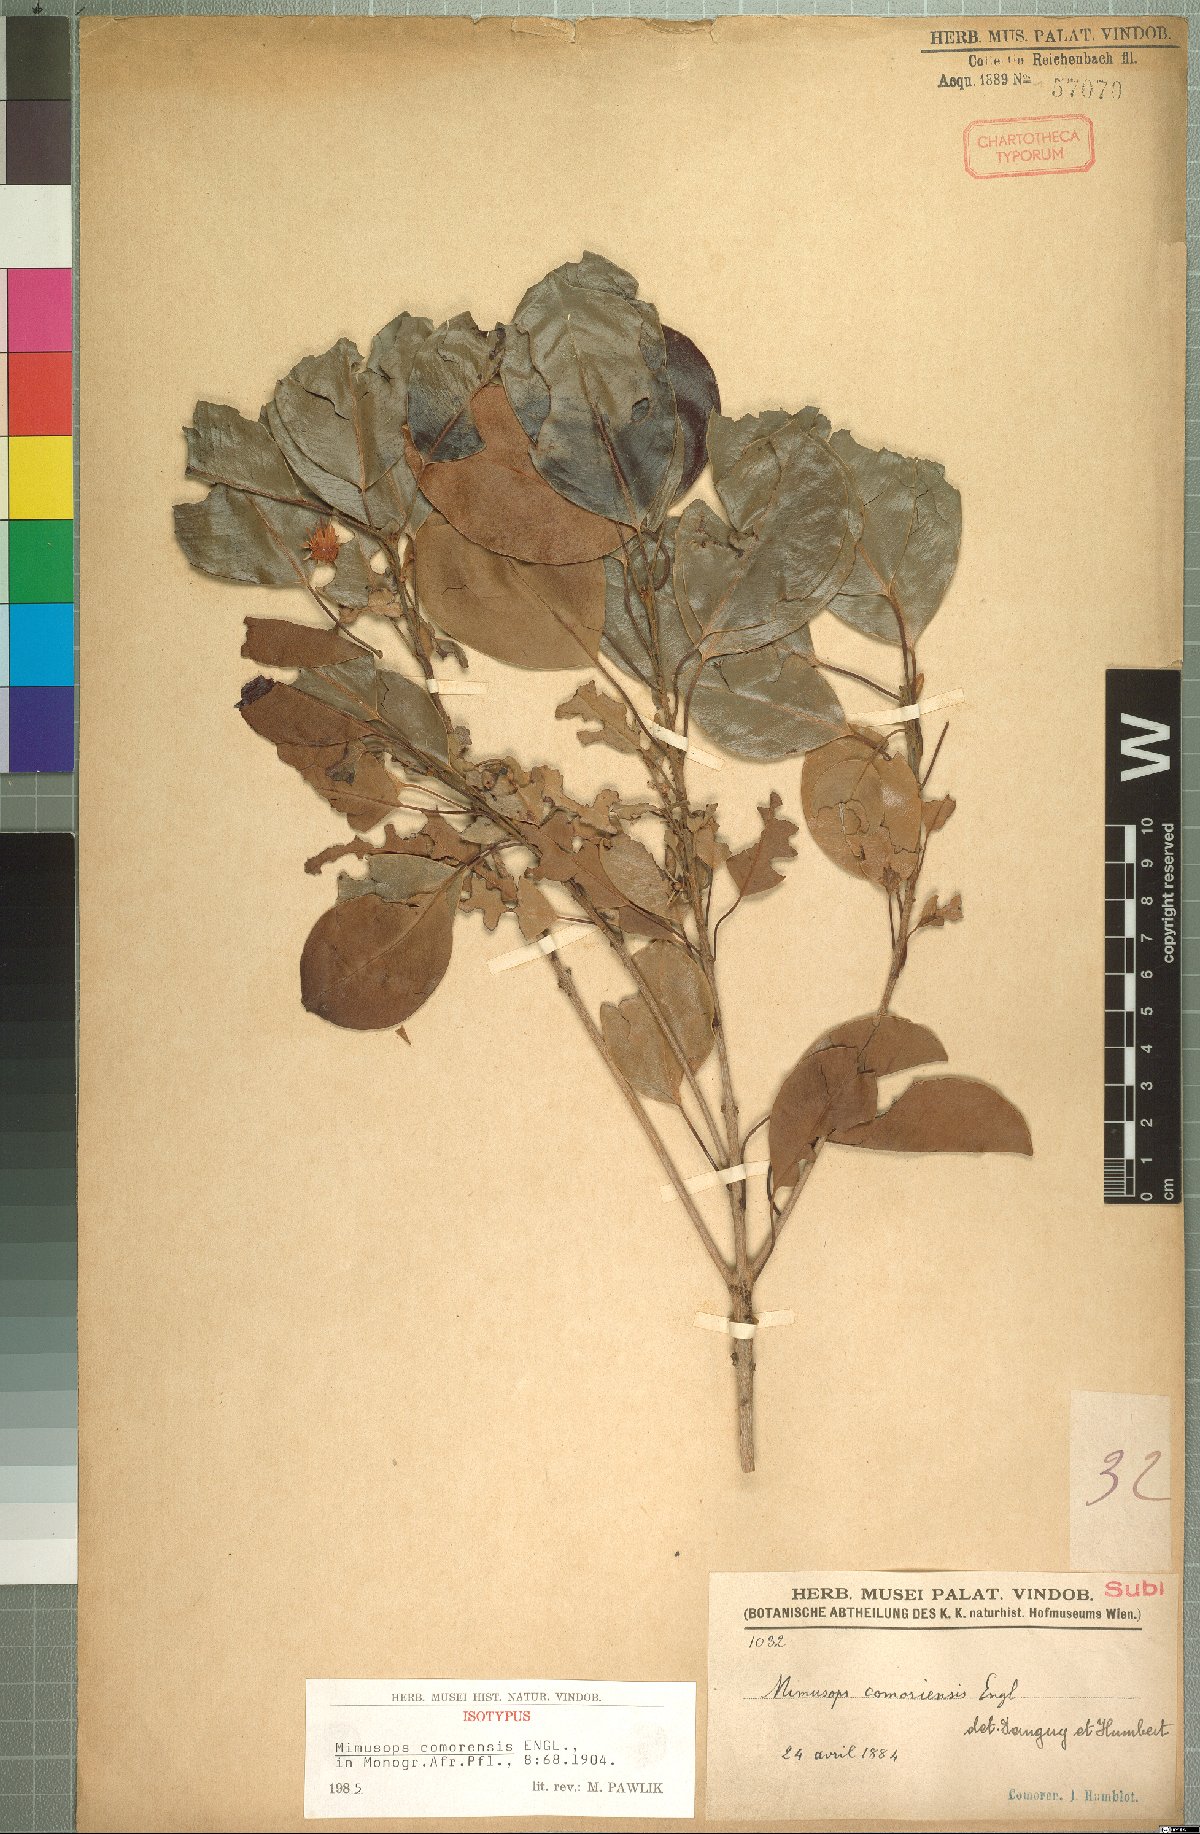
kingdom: Plantae
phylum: Tracheophyta
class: Magnoliopsida
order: Ericales
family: Sapotaceae
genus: Mimusops
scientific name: Mimusops comorensis
